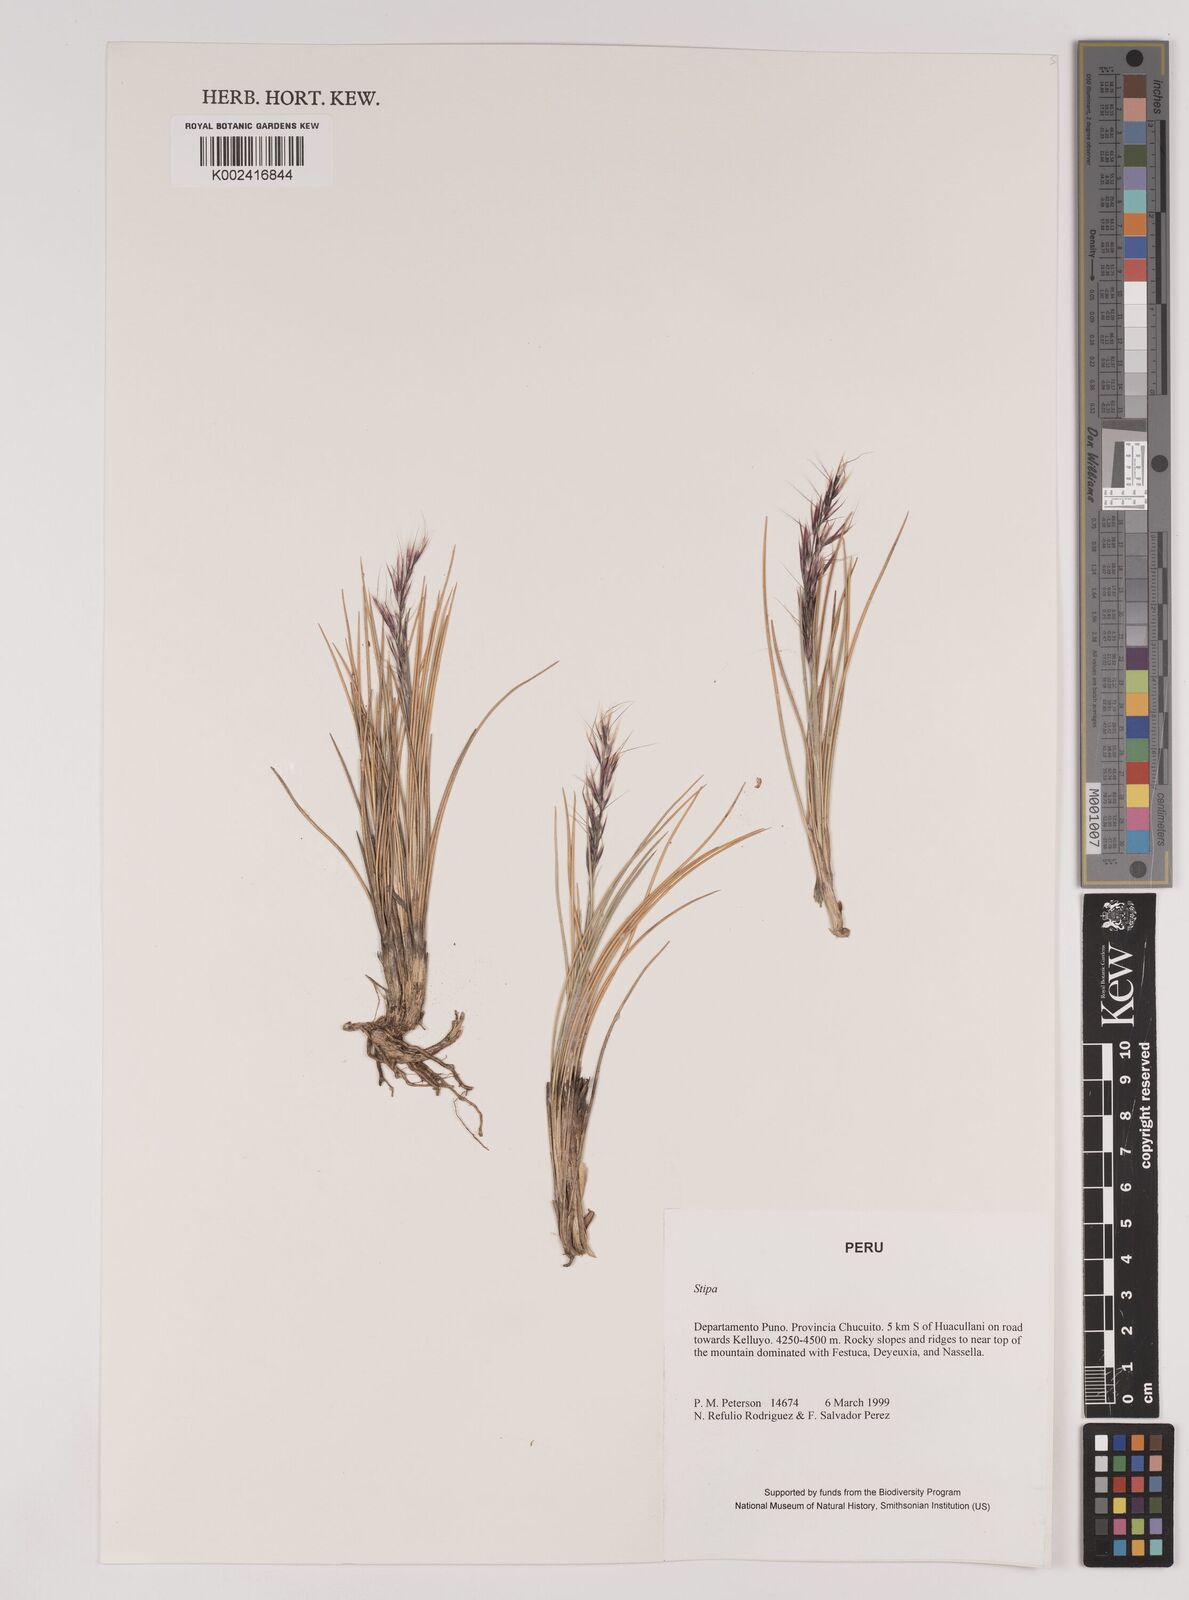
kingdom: Plantae
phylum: Tracheophyta
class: Liliopsida
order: Poales
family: Poaceae
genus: Stipa
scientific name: Stipa
